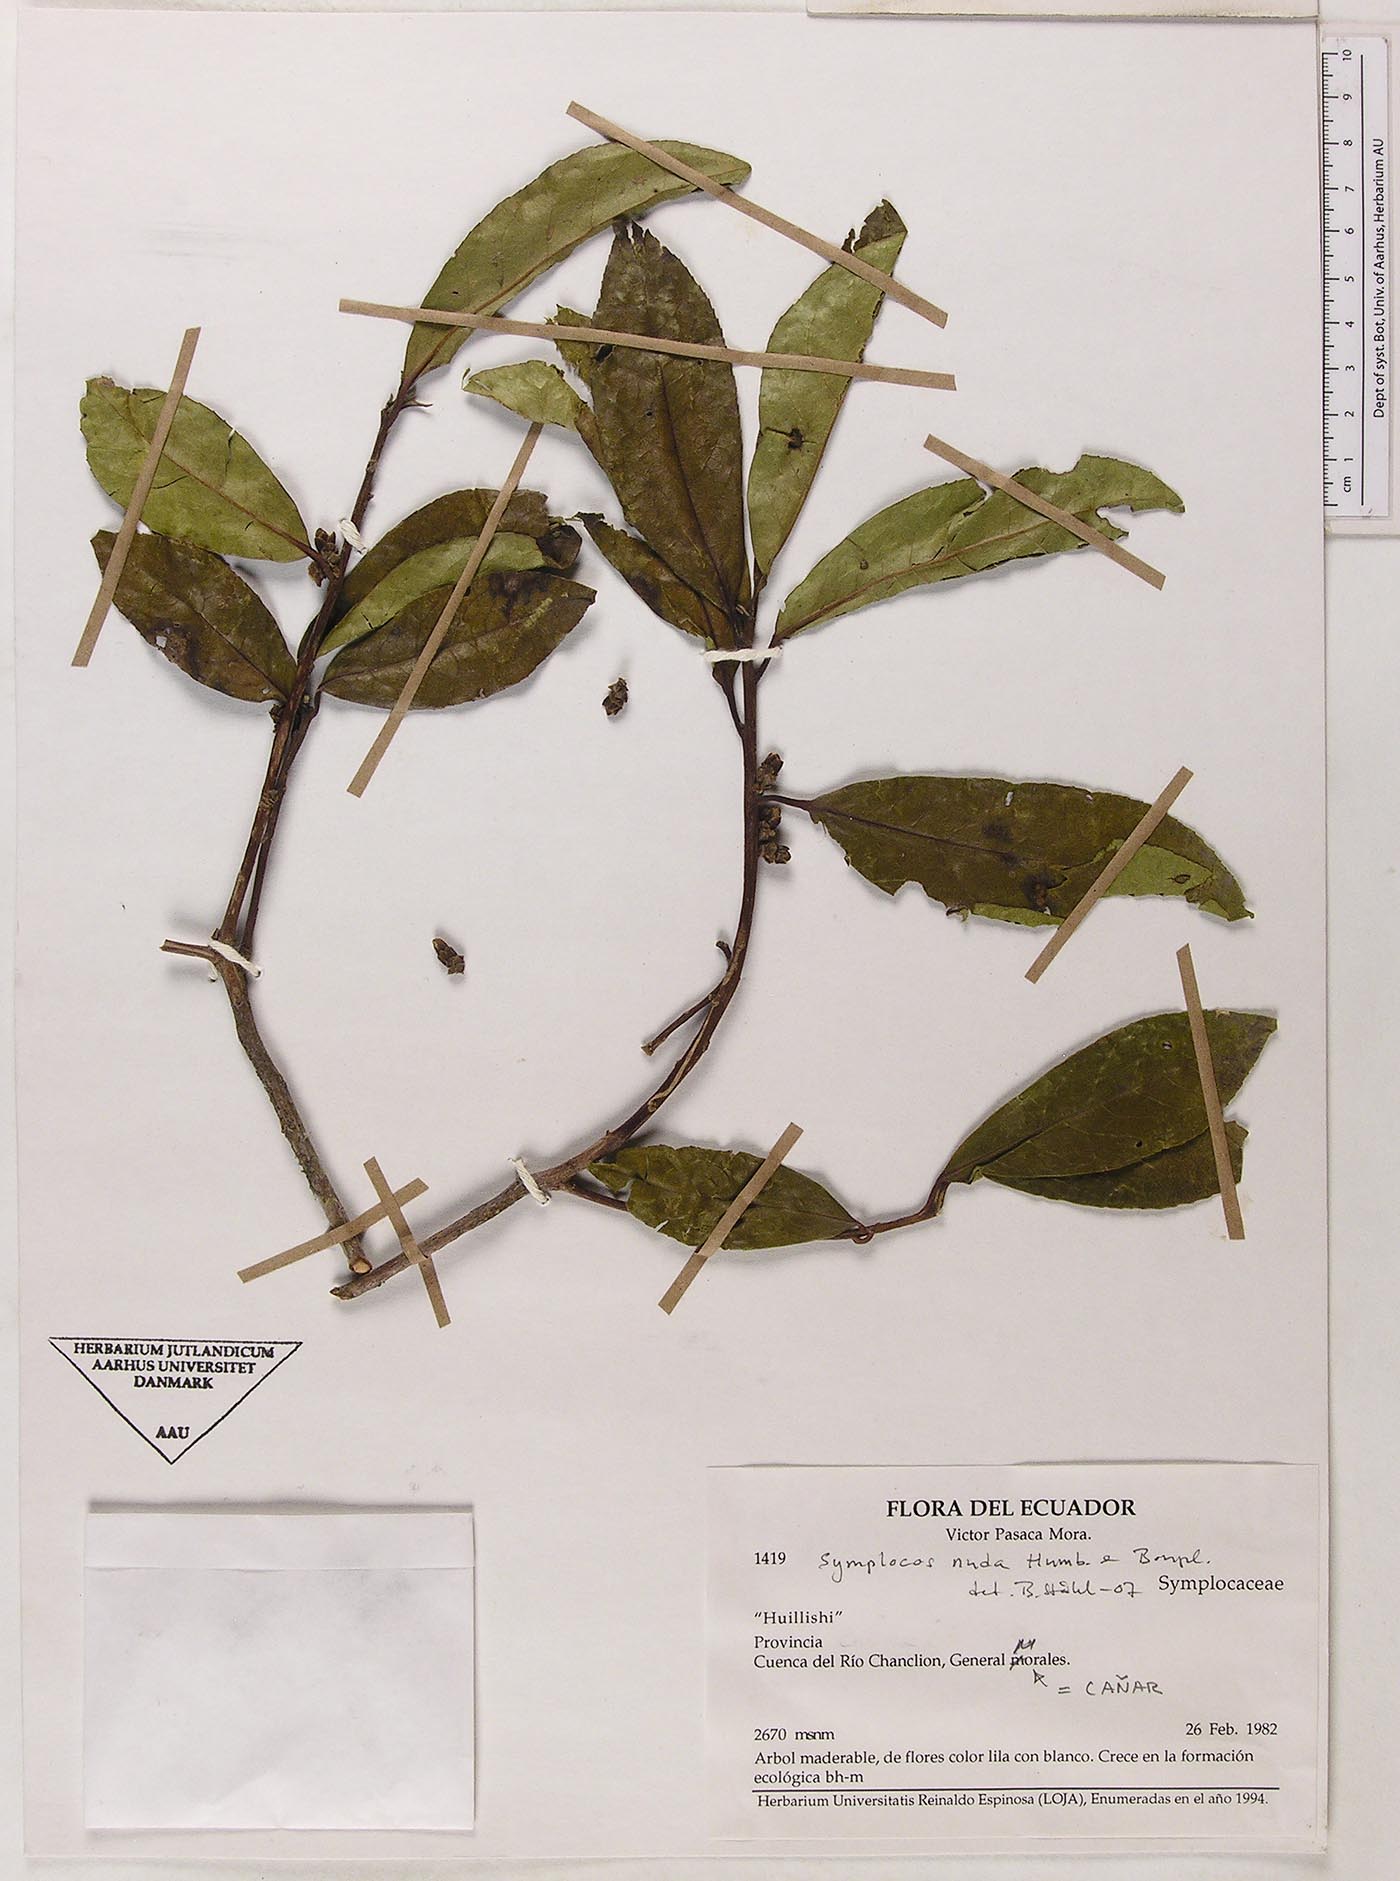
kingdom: Plantae
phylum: Tracheophyta
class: Magnoliopsida
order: Ericales
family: Symplocaceae
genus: Symplocos
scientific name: Symplocos nuda
